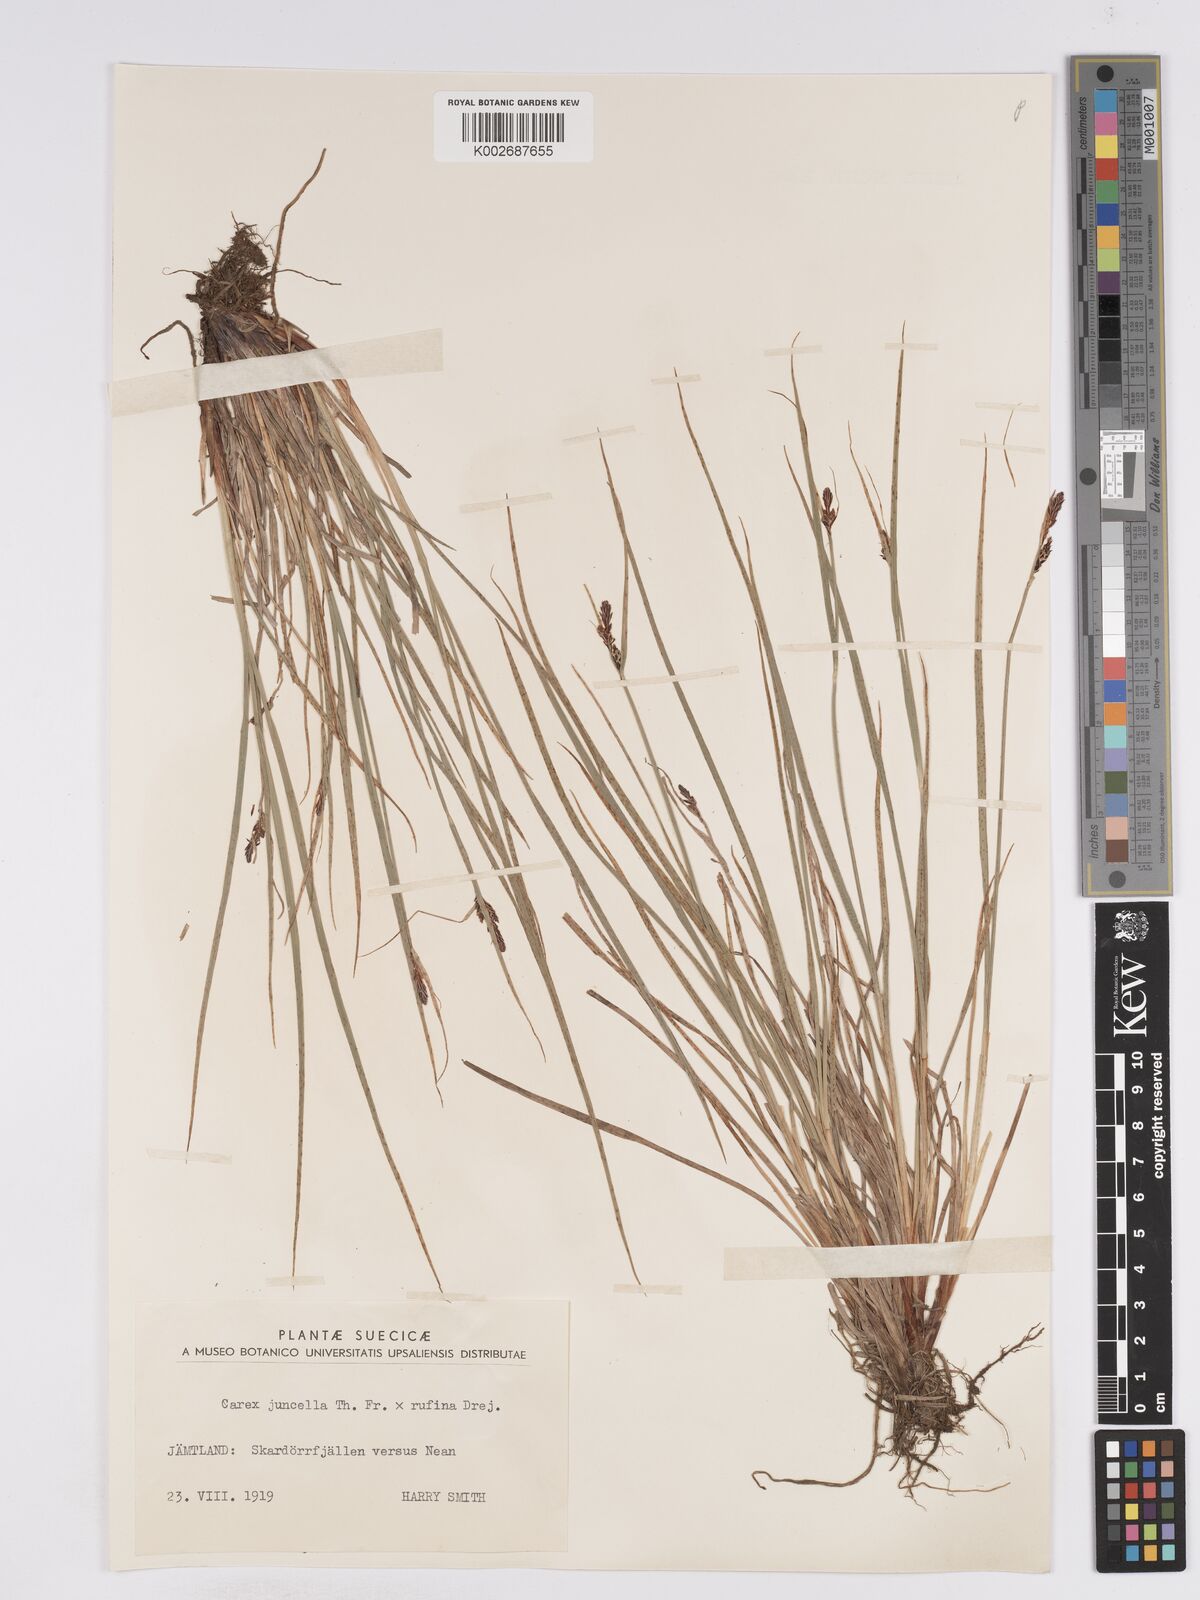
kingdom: Plantae
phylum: Tracheophyta
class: Liliopsida
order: Poales
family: Cyperaceae
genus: Carex
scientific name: Carex
